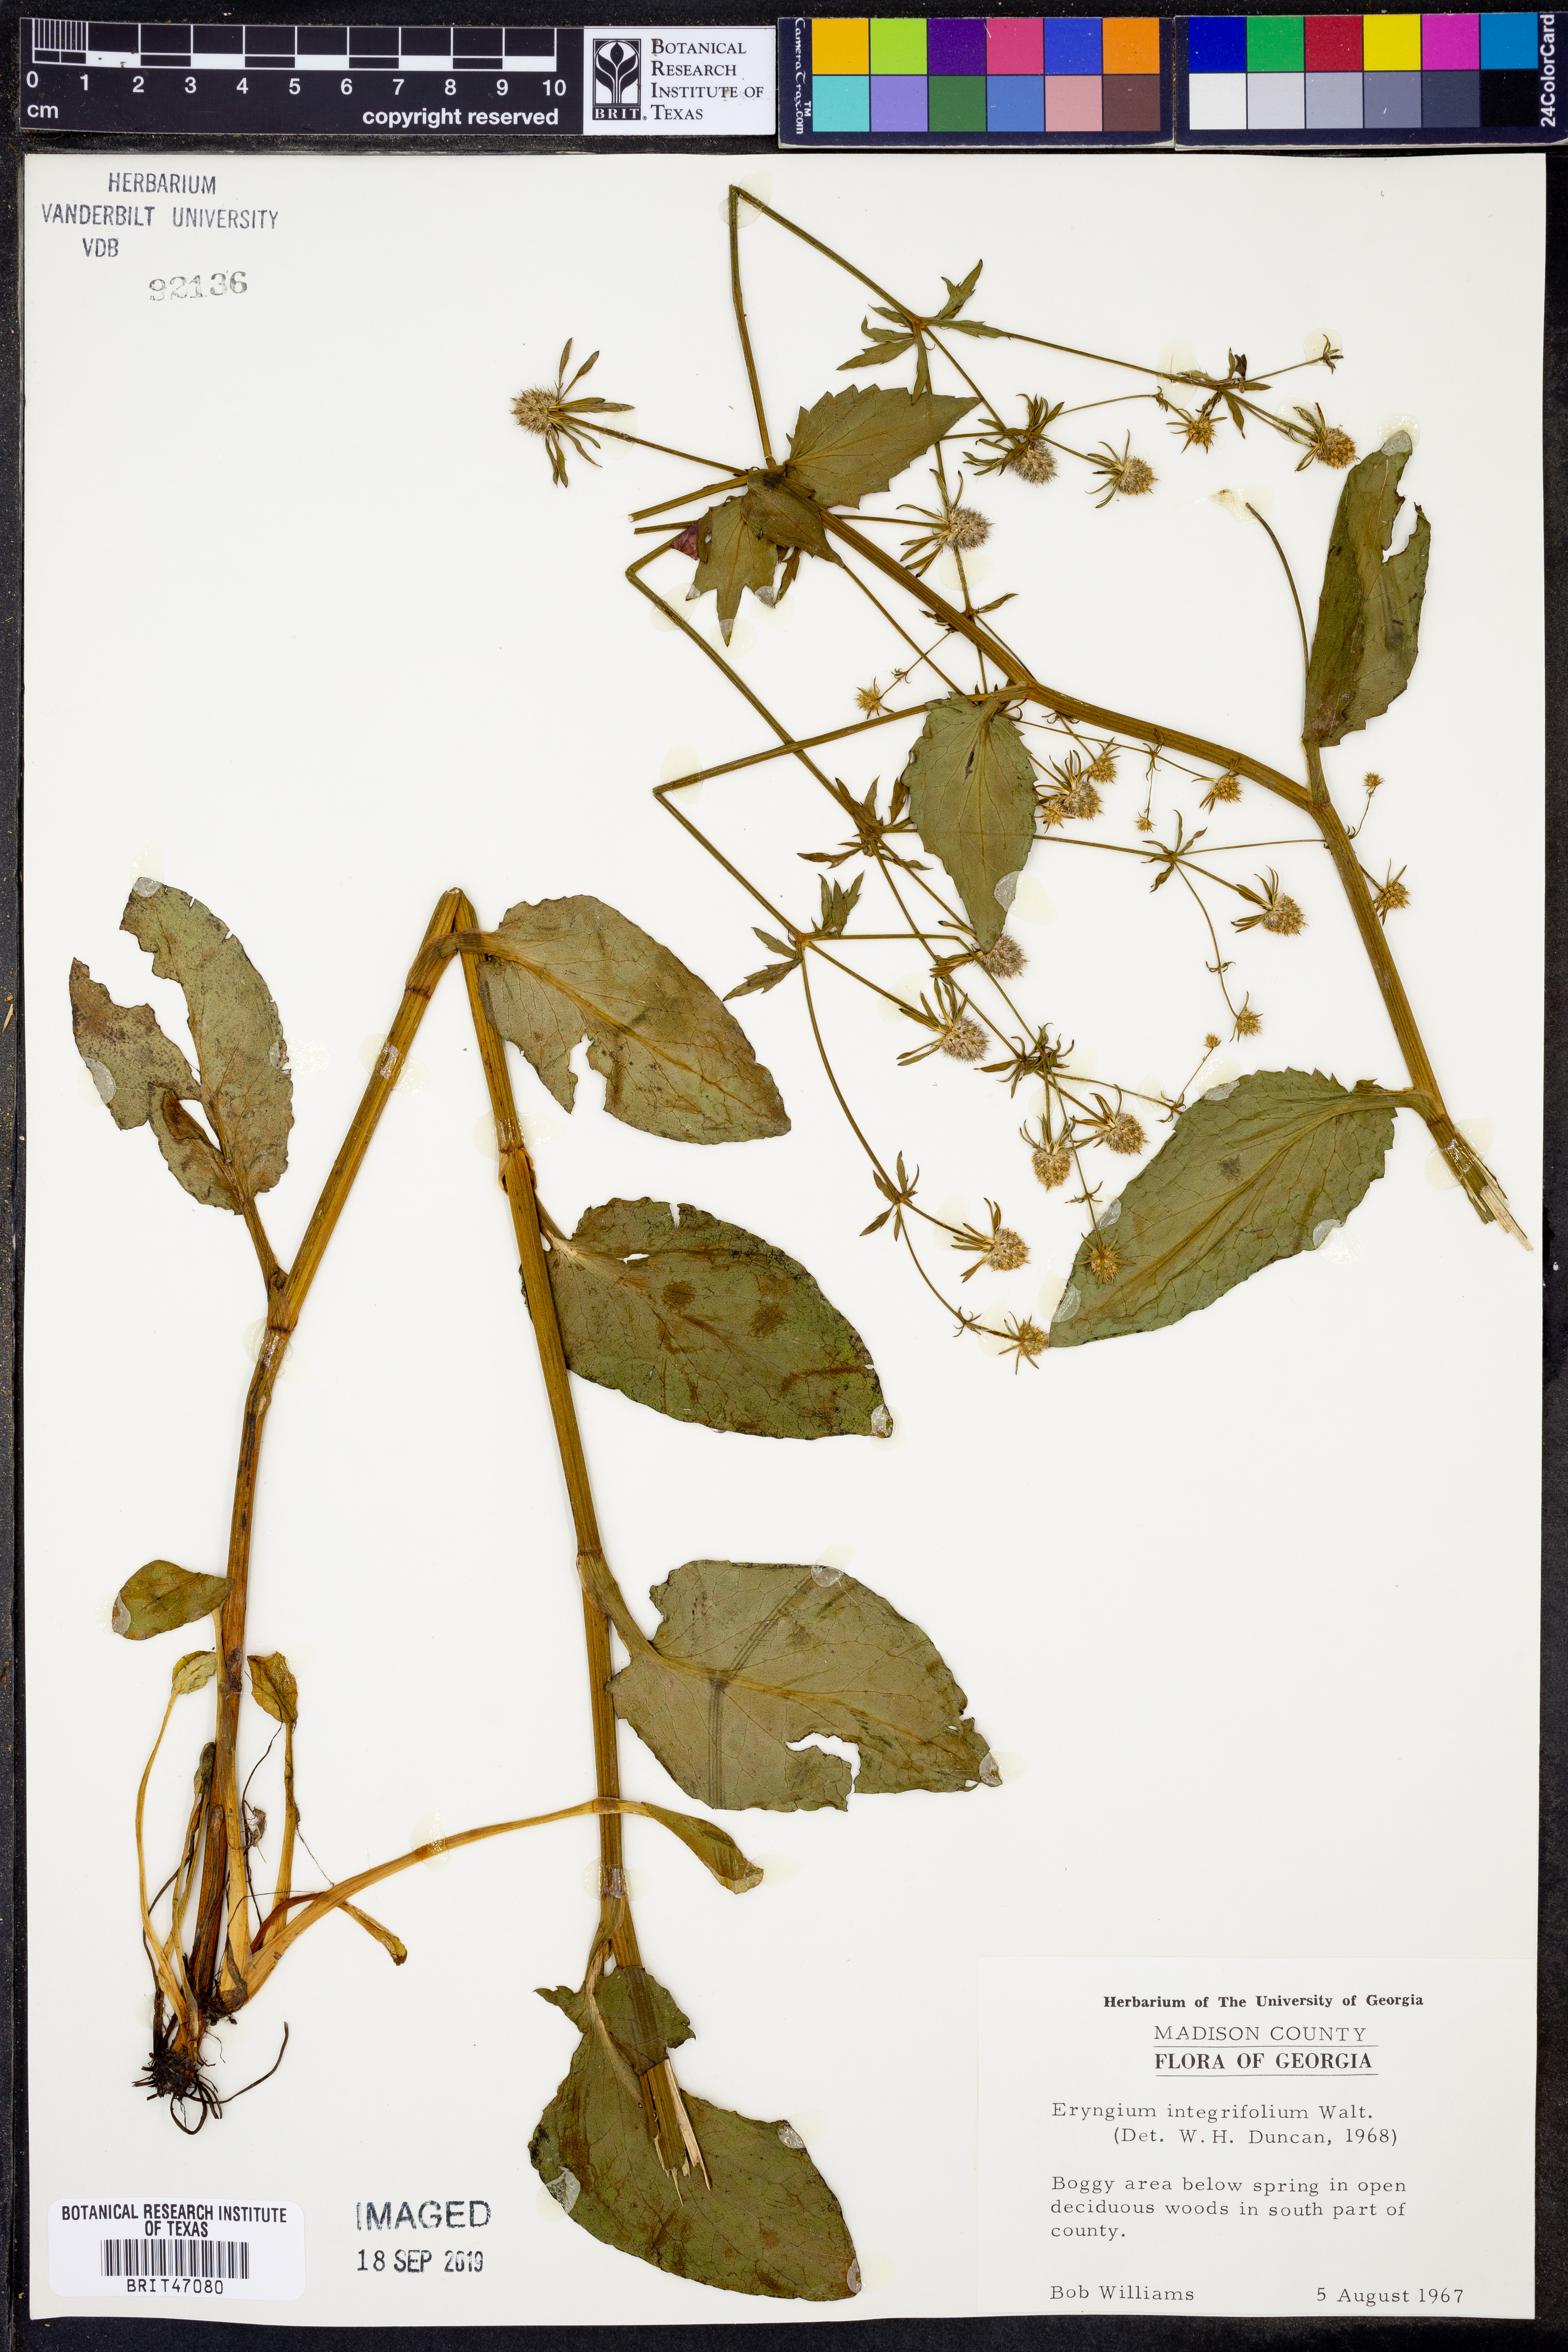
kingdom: Plantae
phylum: Tracheophyta
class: Magnoliopsida
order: Apiales
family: Apiaceae
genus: Eryngium
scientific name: Eryngium integrifolium
